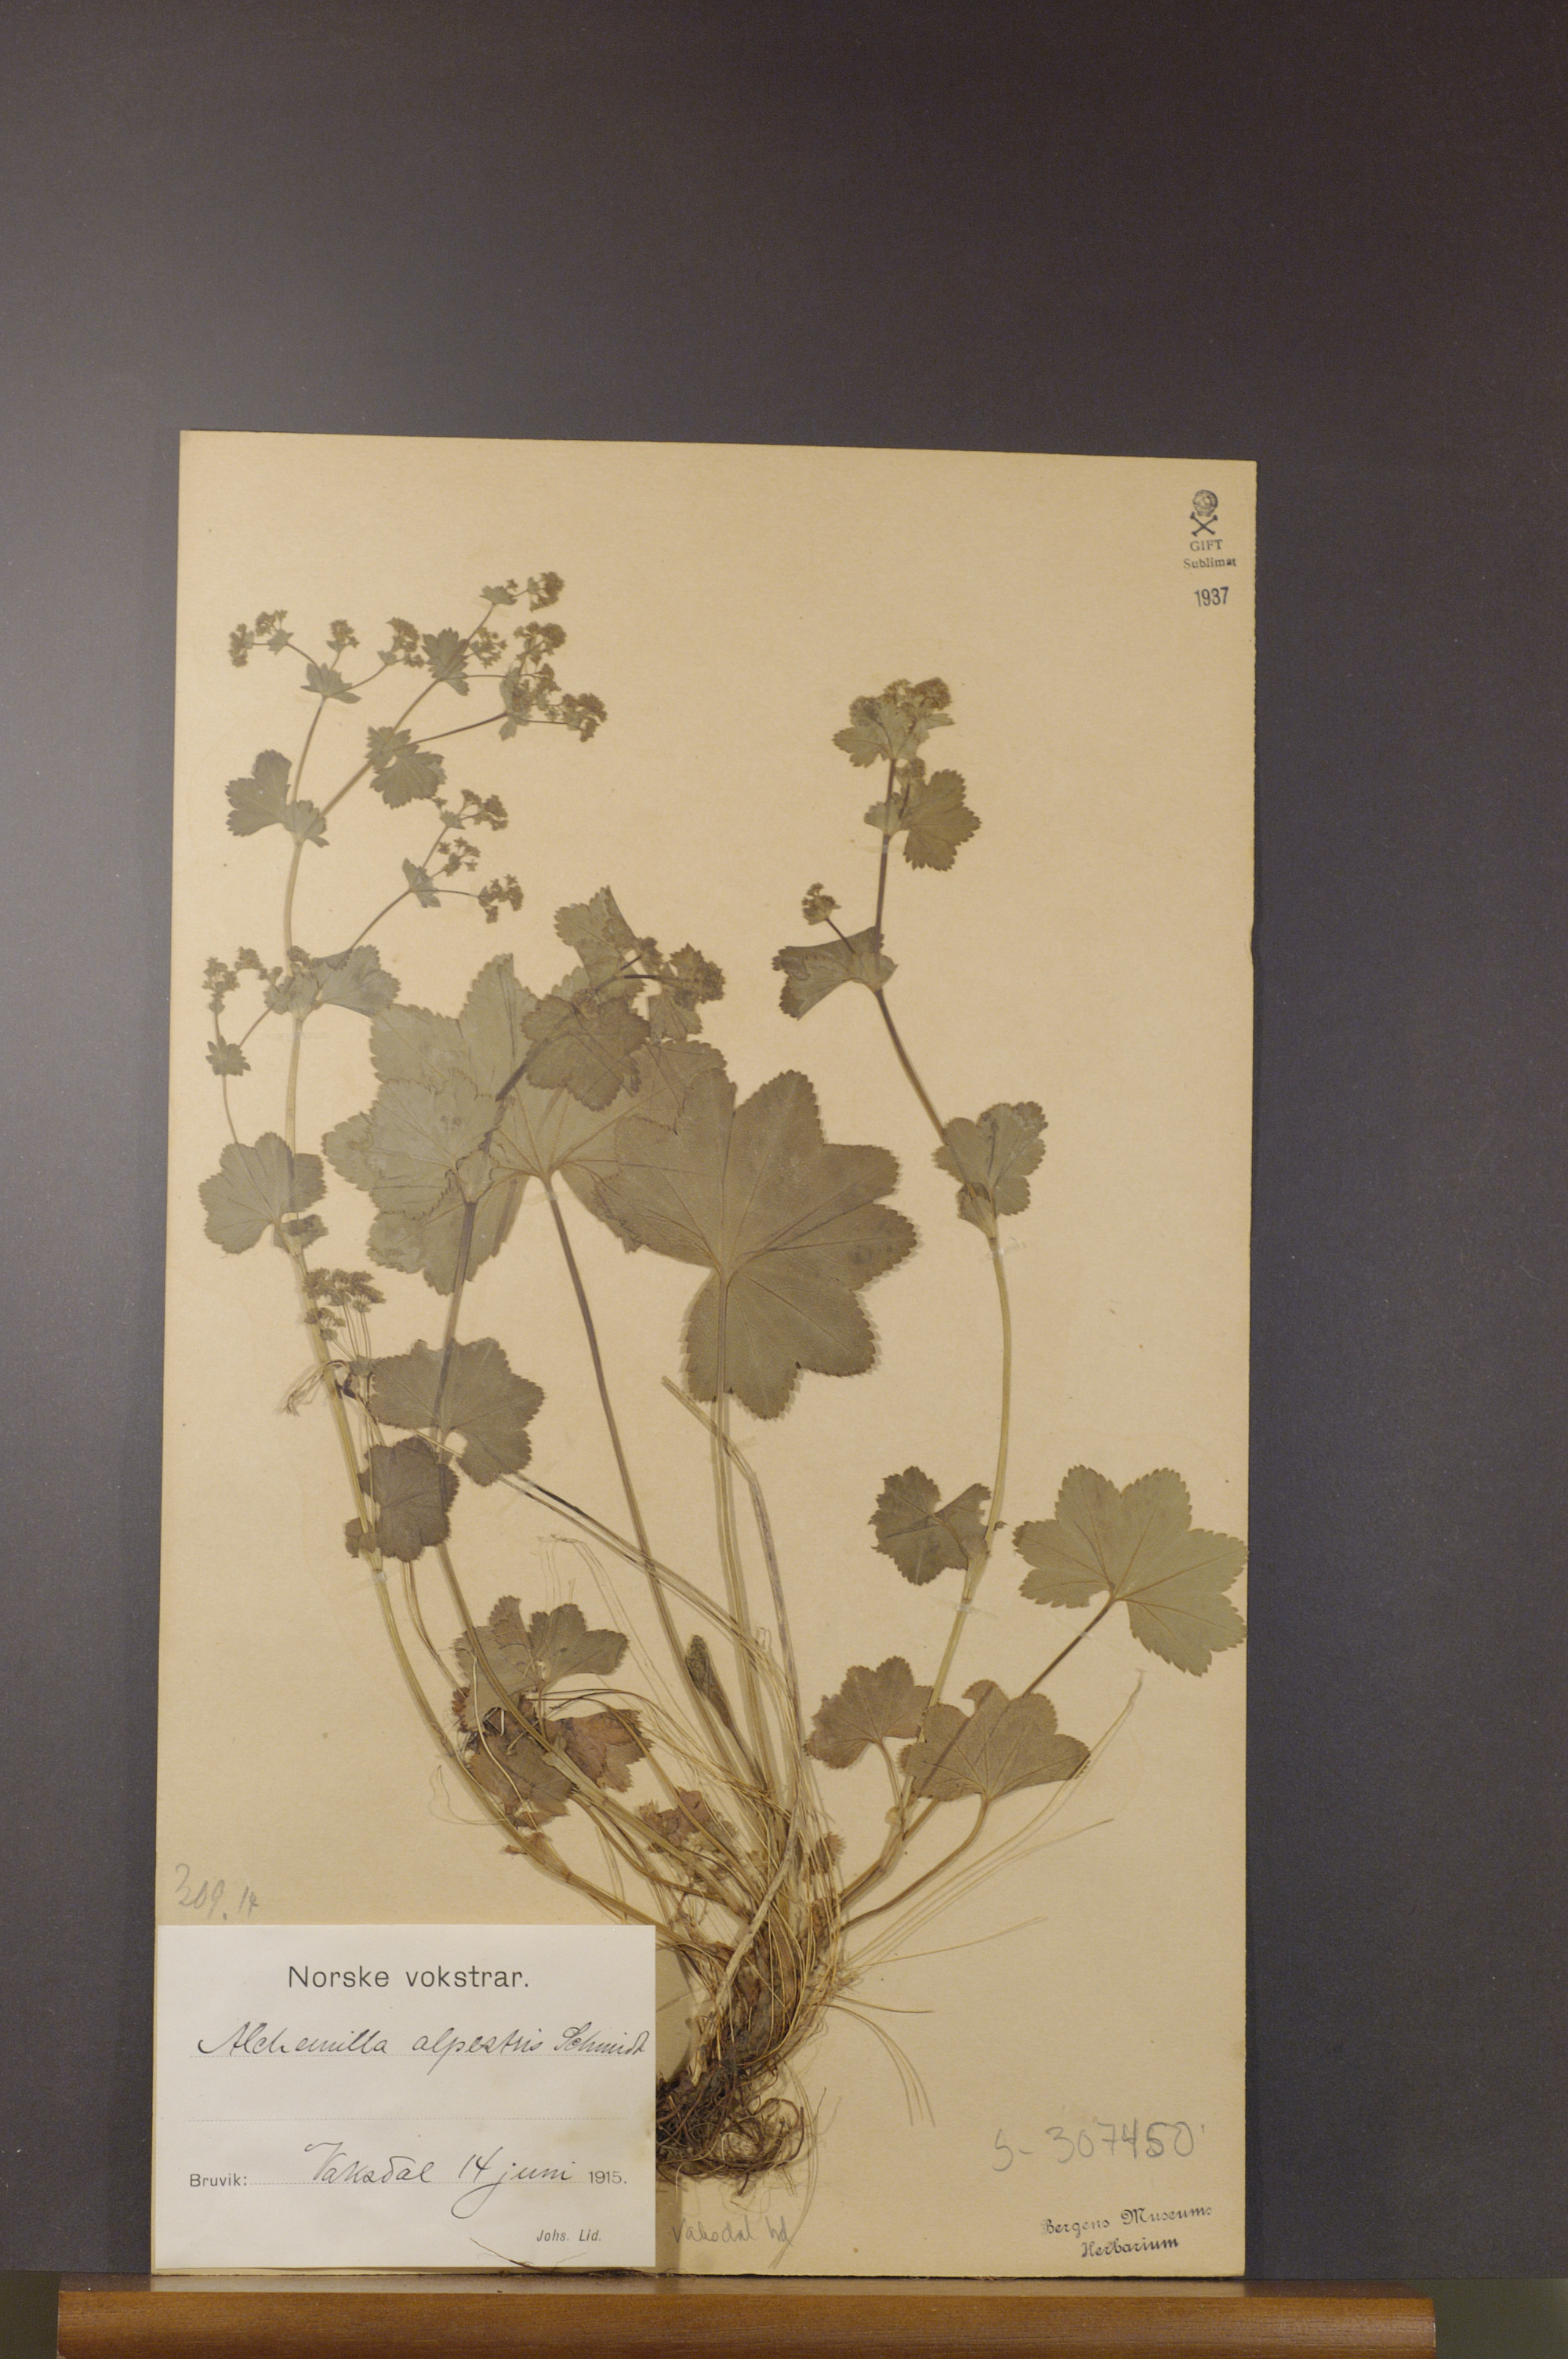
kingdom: Plantae
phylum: Tracheophyta
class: Magnoliopsida
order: Rosales
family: Rosaceae
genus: Alchemilla
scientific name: Alchemilla glabra
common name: Smooth lady's-mantle
